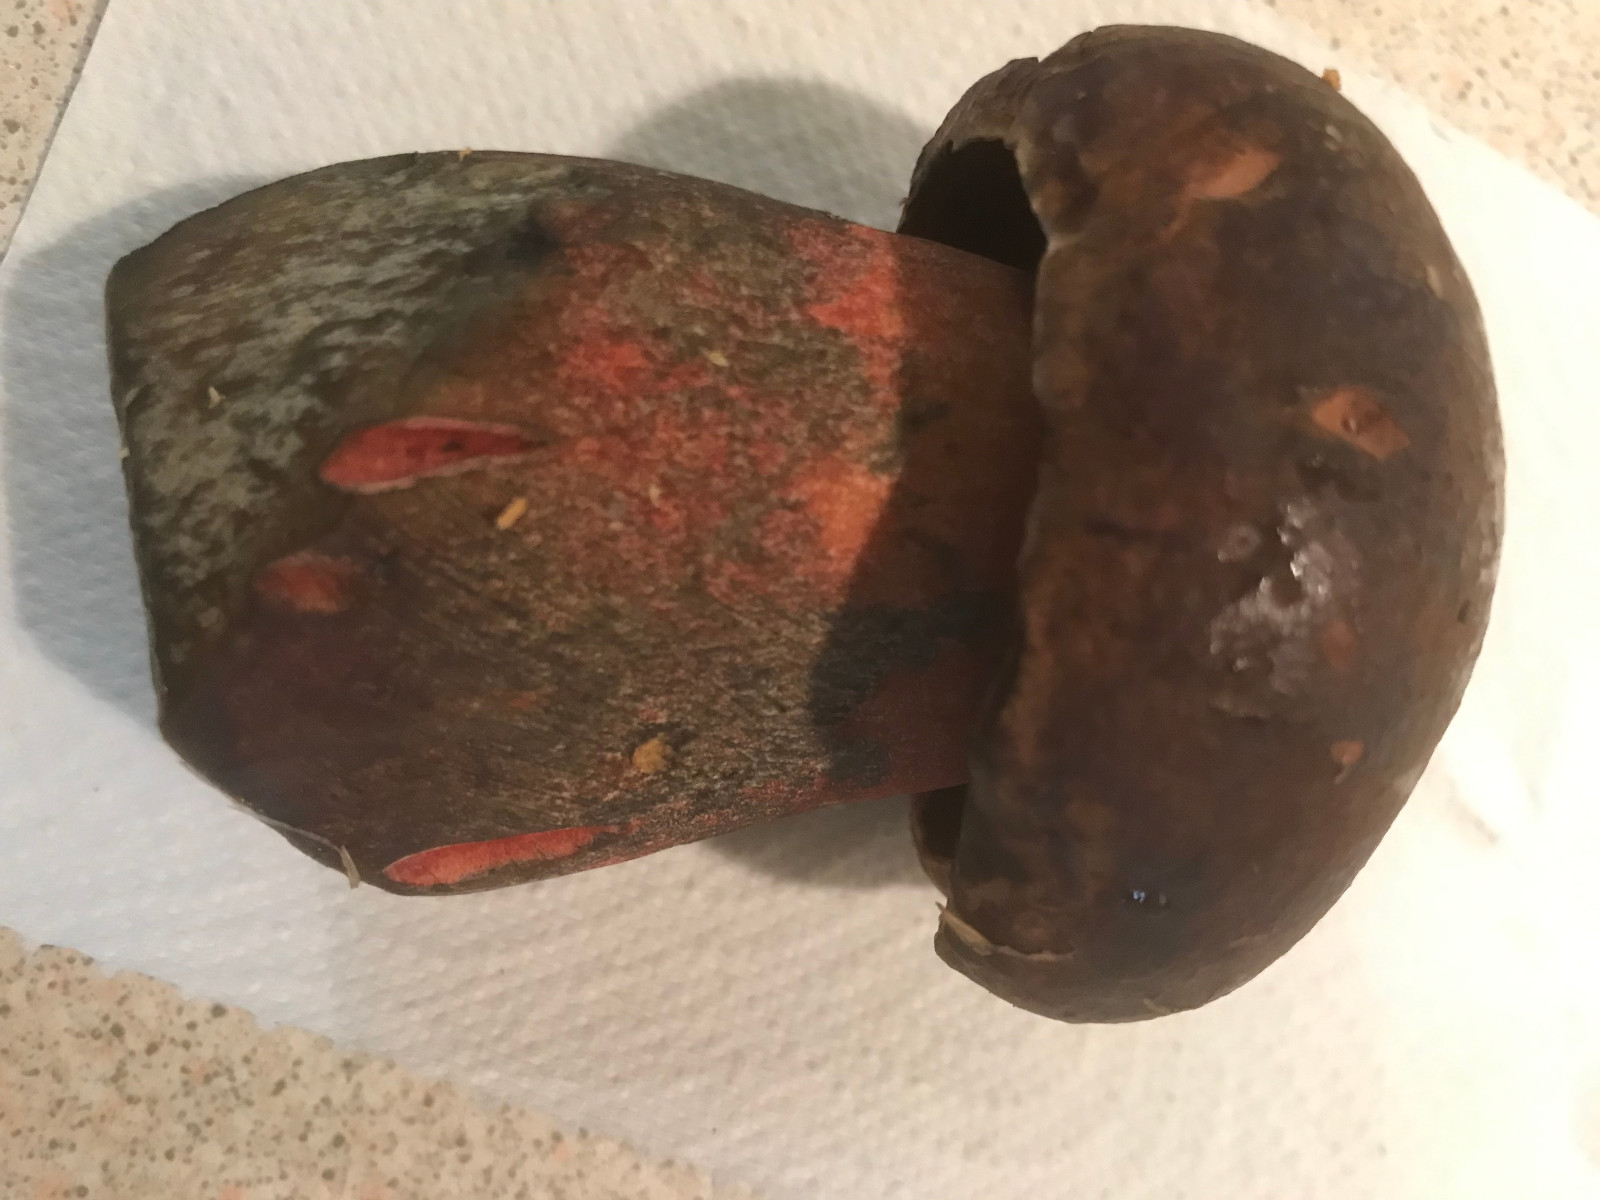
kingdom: Fungi
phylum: Basidiomycota
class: Agaricomycetes
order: Boletales
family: Boletaceae
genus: Neoboletus
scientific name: Neoboletus erythropus
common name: punktstokket indigorørhat
